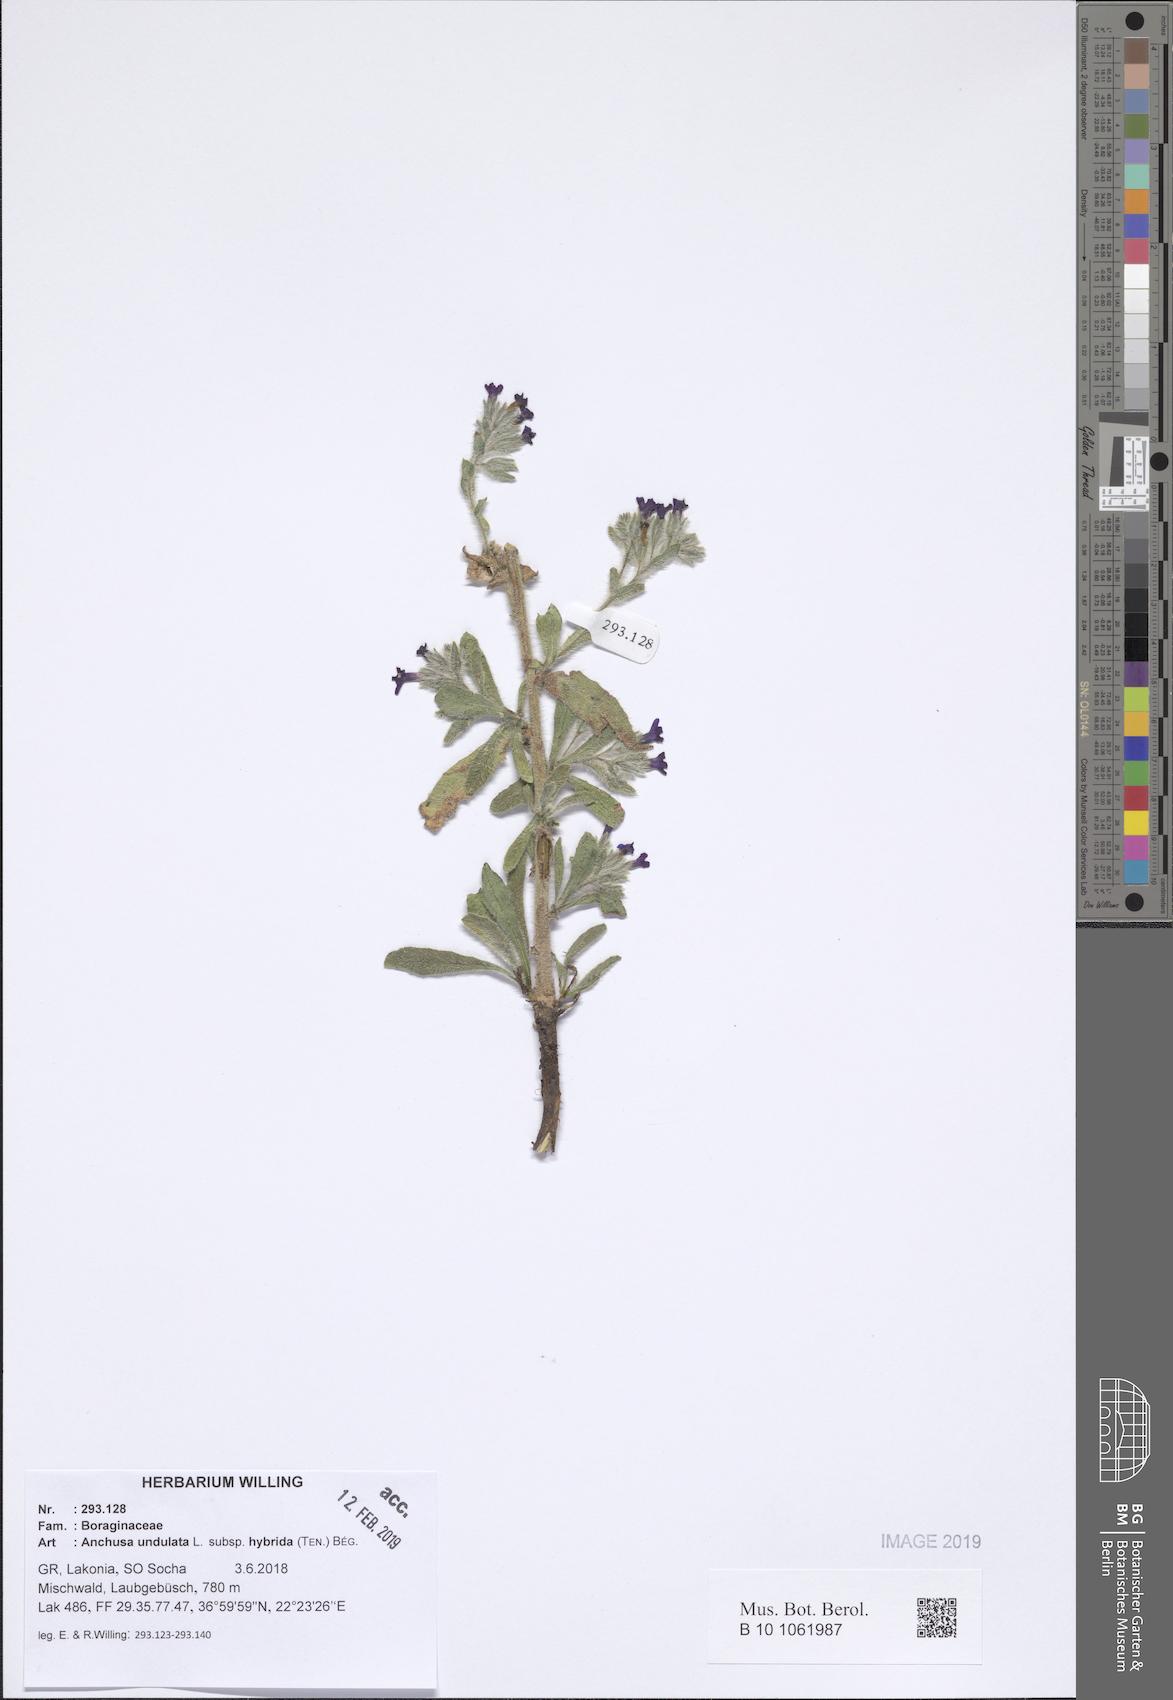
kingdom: Plantae
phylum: Tracheophyta
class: Magnoliopsida
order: Boraginales
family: Boraginaceae
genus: Anchusa
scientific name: Anchusa undulata
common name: Undulate alkanet
